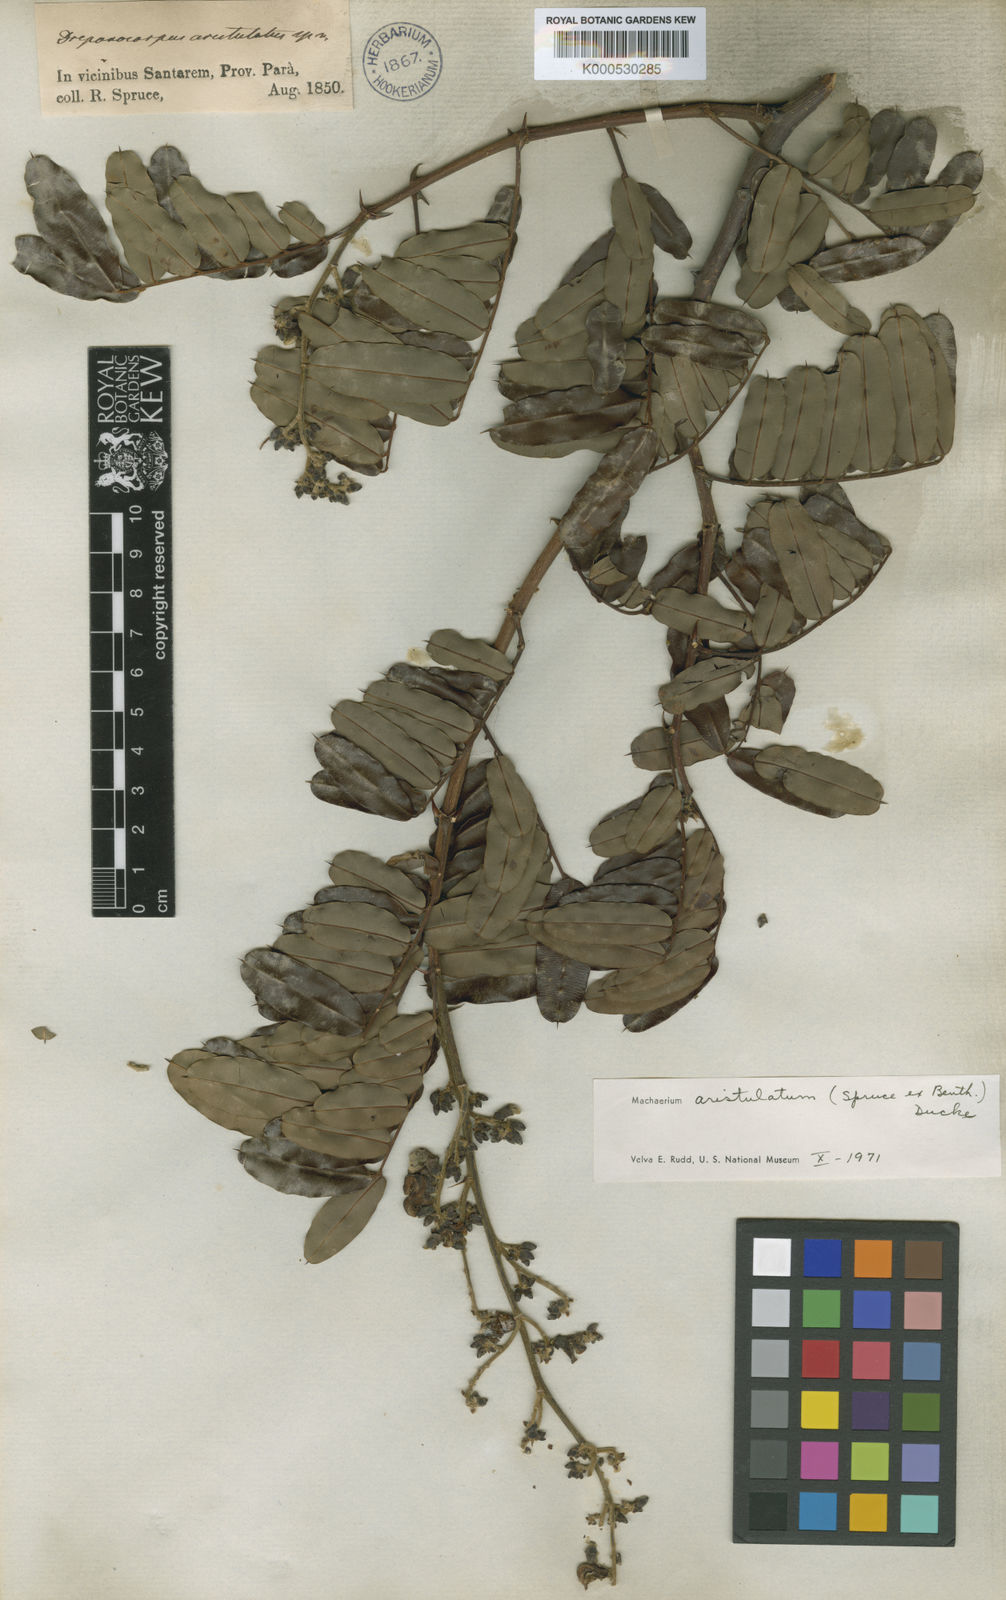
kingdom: Plantae
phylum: Tracheophyta
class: Magnoliopsida
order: Fabales
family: Fabaceae
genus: Machaerium
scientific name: Machaerium aristulatum
